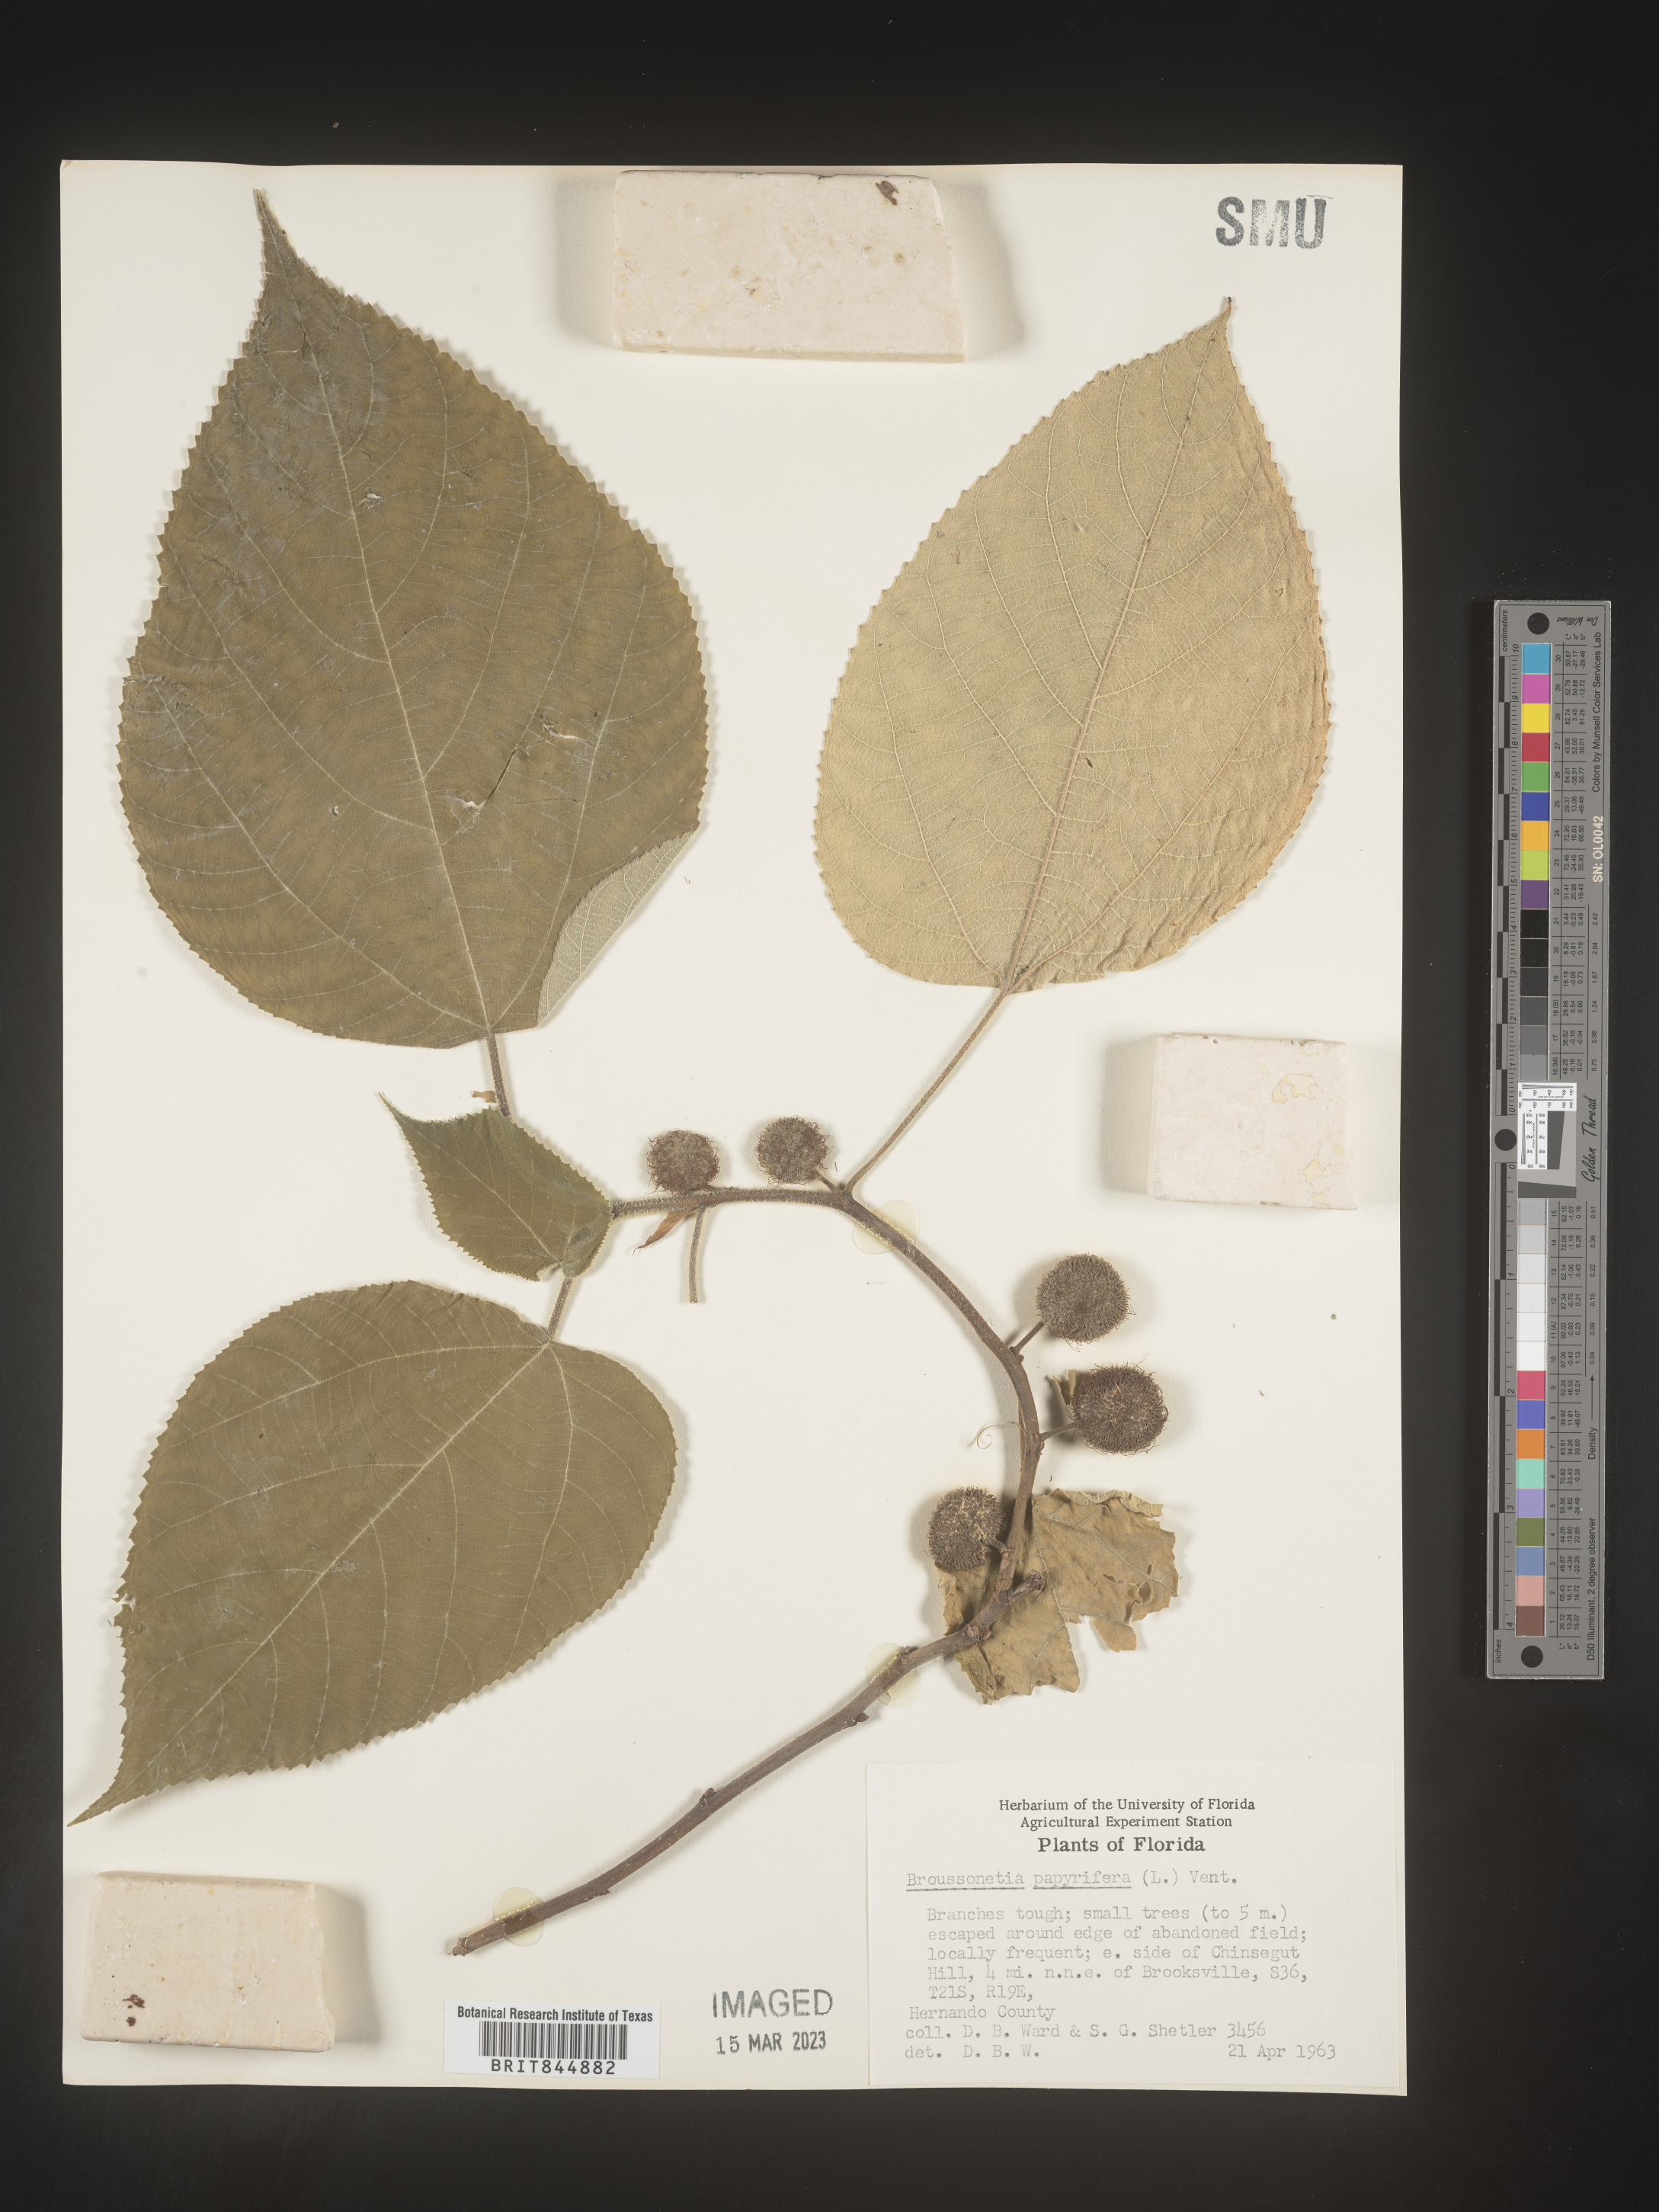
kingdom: Plantae
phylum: Tracheophyta
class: Magnoliopsida
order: Rosales
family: Moraceae
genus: Broussonetia
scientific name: Broussonetia
